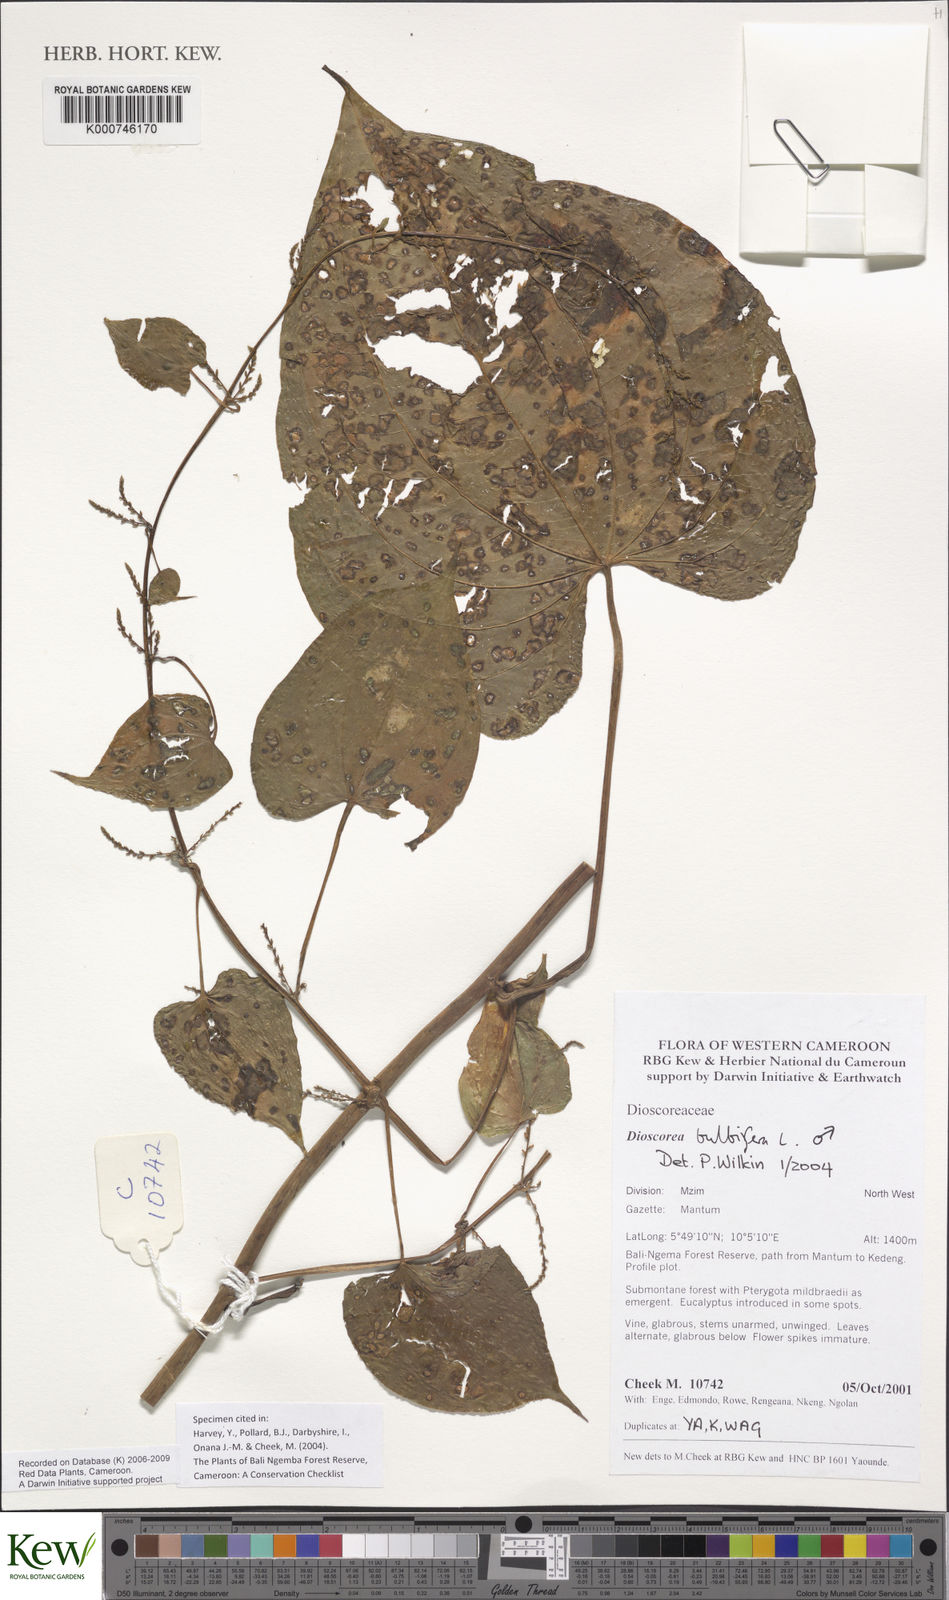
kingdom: Plantae
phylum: Tracheophyta
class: Liliopsida
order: Dioscoreales
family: Dioscoreaceae
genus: Dioscorea
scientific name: Dioscorea bulbifera
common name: Air yam
